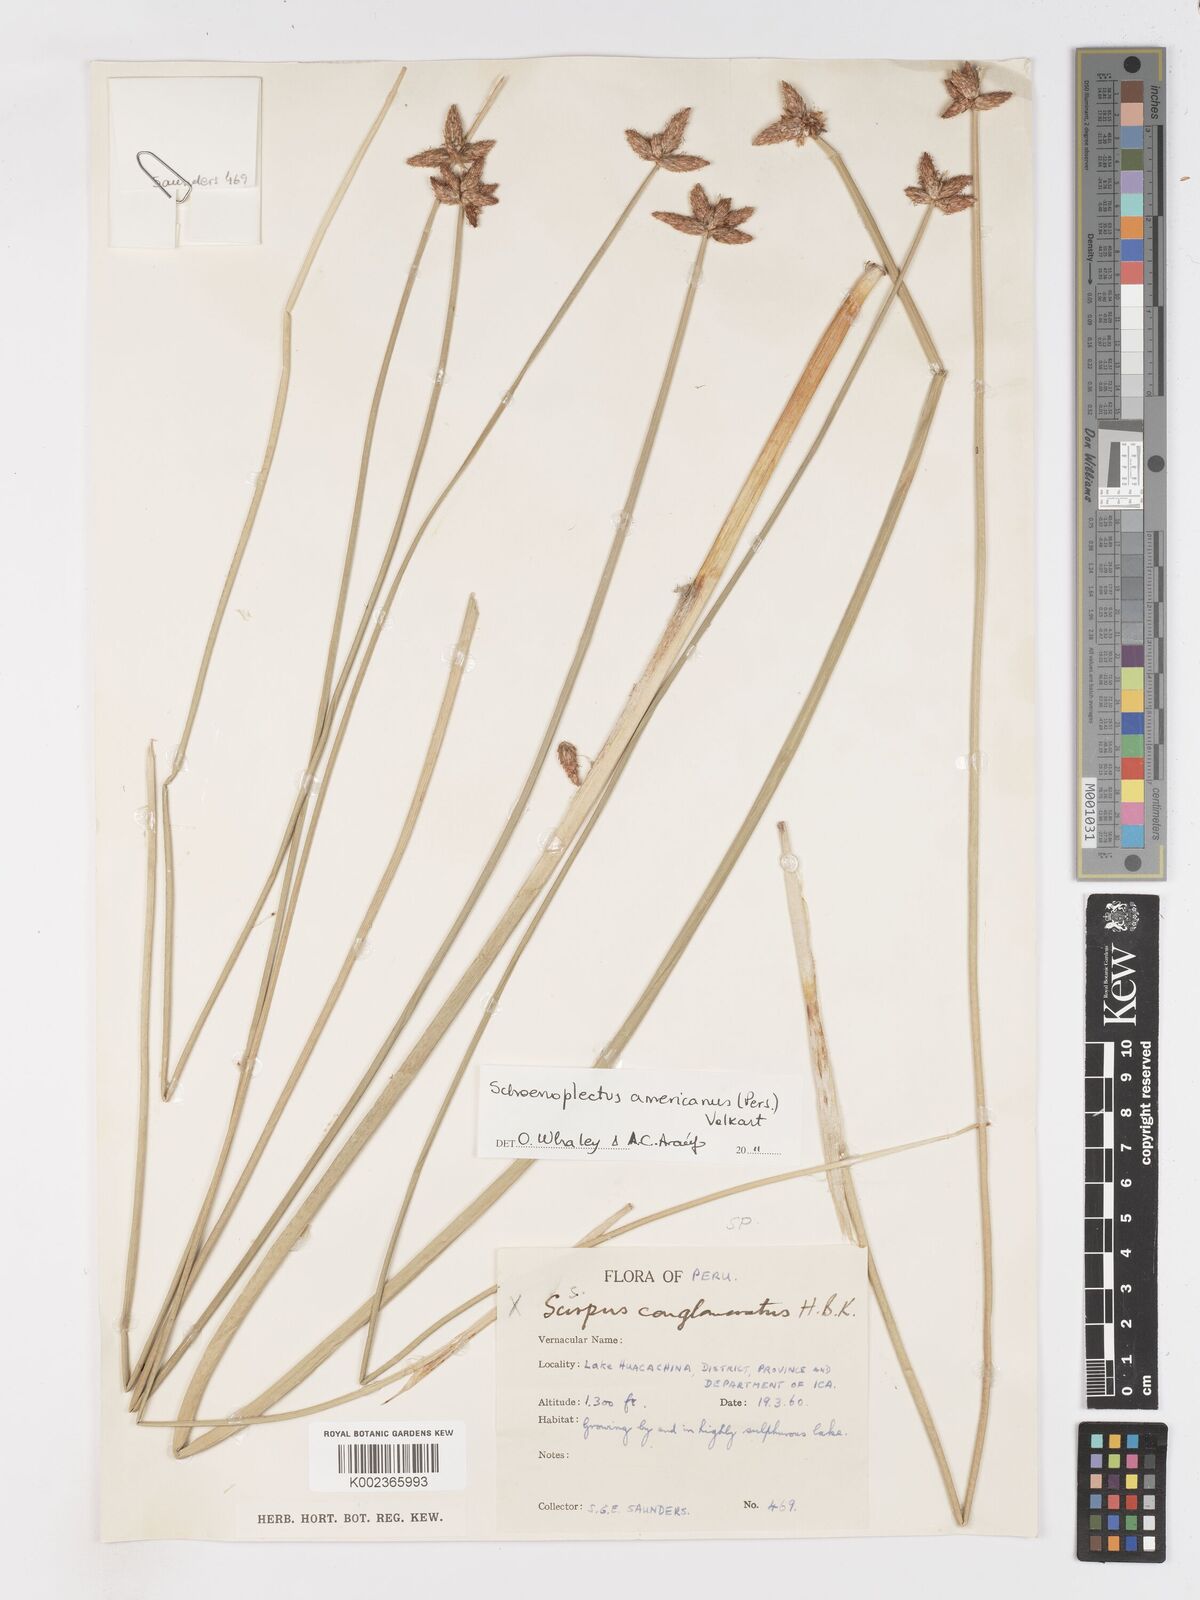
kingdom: Plantae
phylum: Tracheophyta
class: Liliopsida
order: Poales
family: Cyperaceae
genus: Schoenoplectus
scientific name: Schoenoplectus americanus
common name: American three-square bulrush
